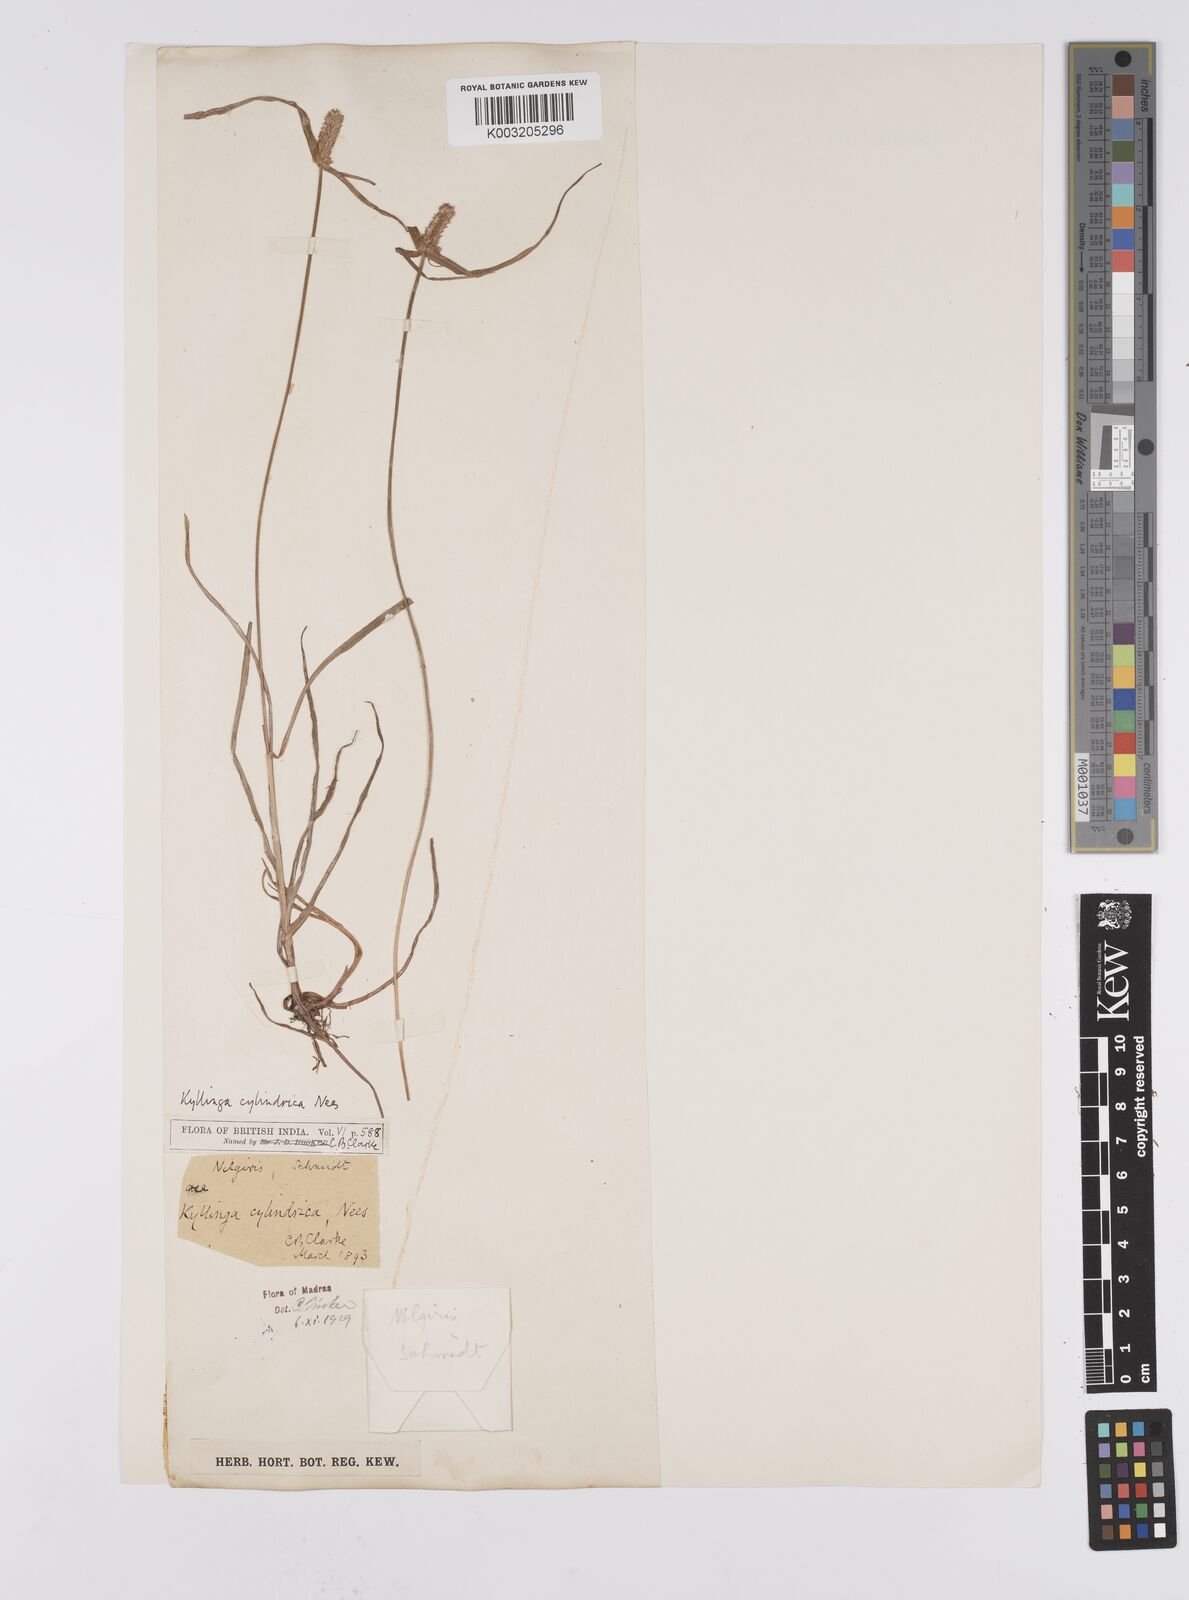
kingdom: Plantae
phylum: Tracheophyta
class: Liliopsida
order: Poales
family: Cyperaceae
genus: Cyperus
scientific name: Cyperus
